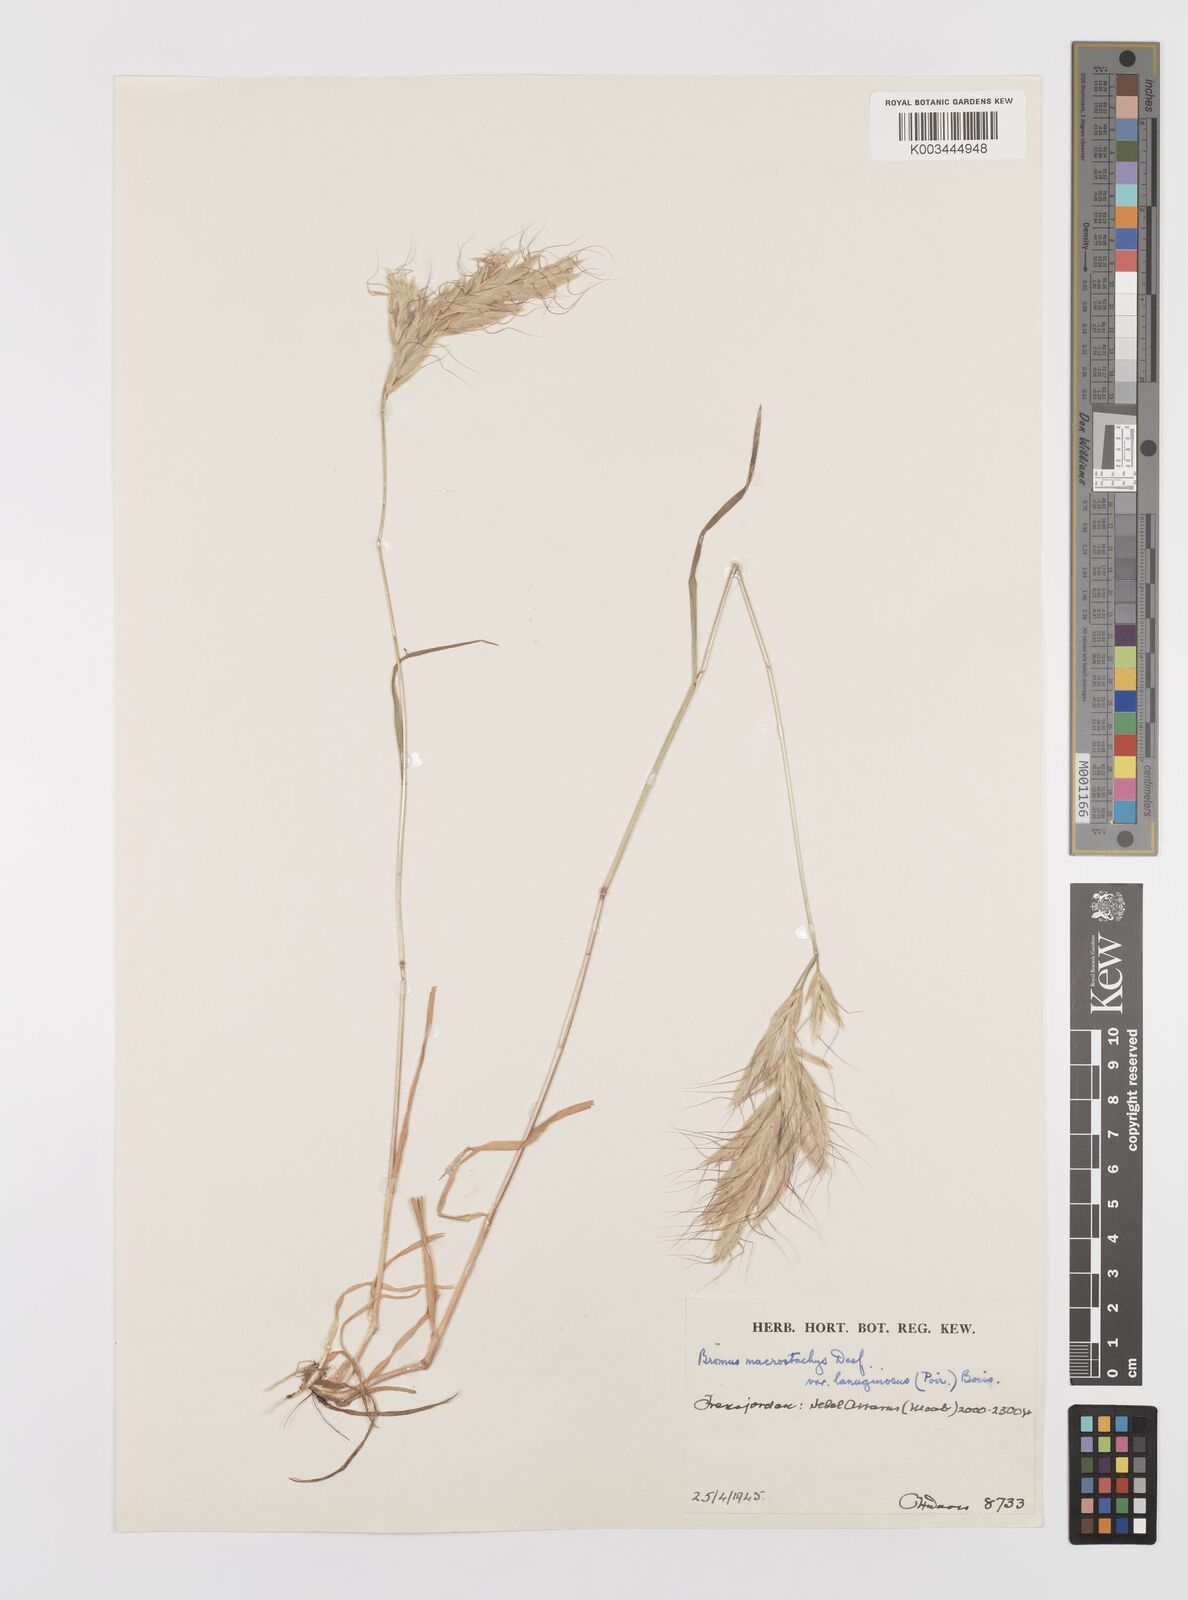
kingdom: Plantae
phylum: Tracheophyta
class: Liliopsida
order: Poales
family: Poaceae
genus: Bromus
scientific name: Bromus lanceolatus
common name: Mediterranean brome
